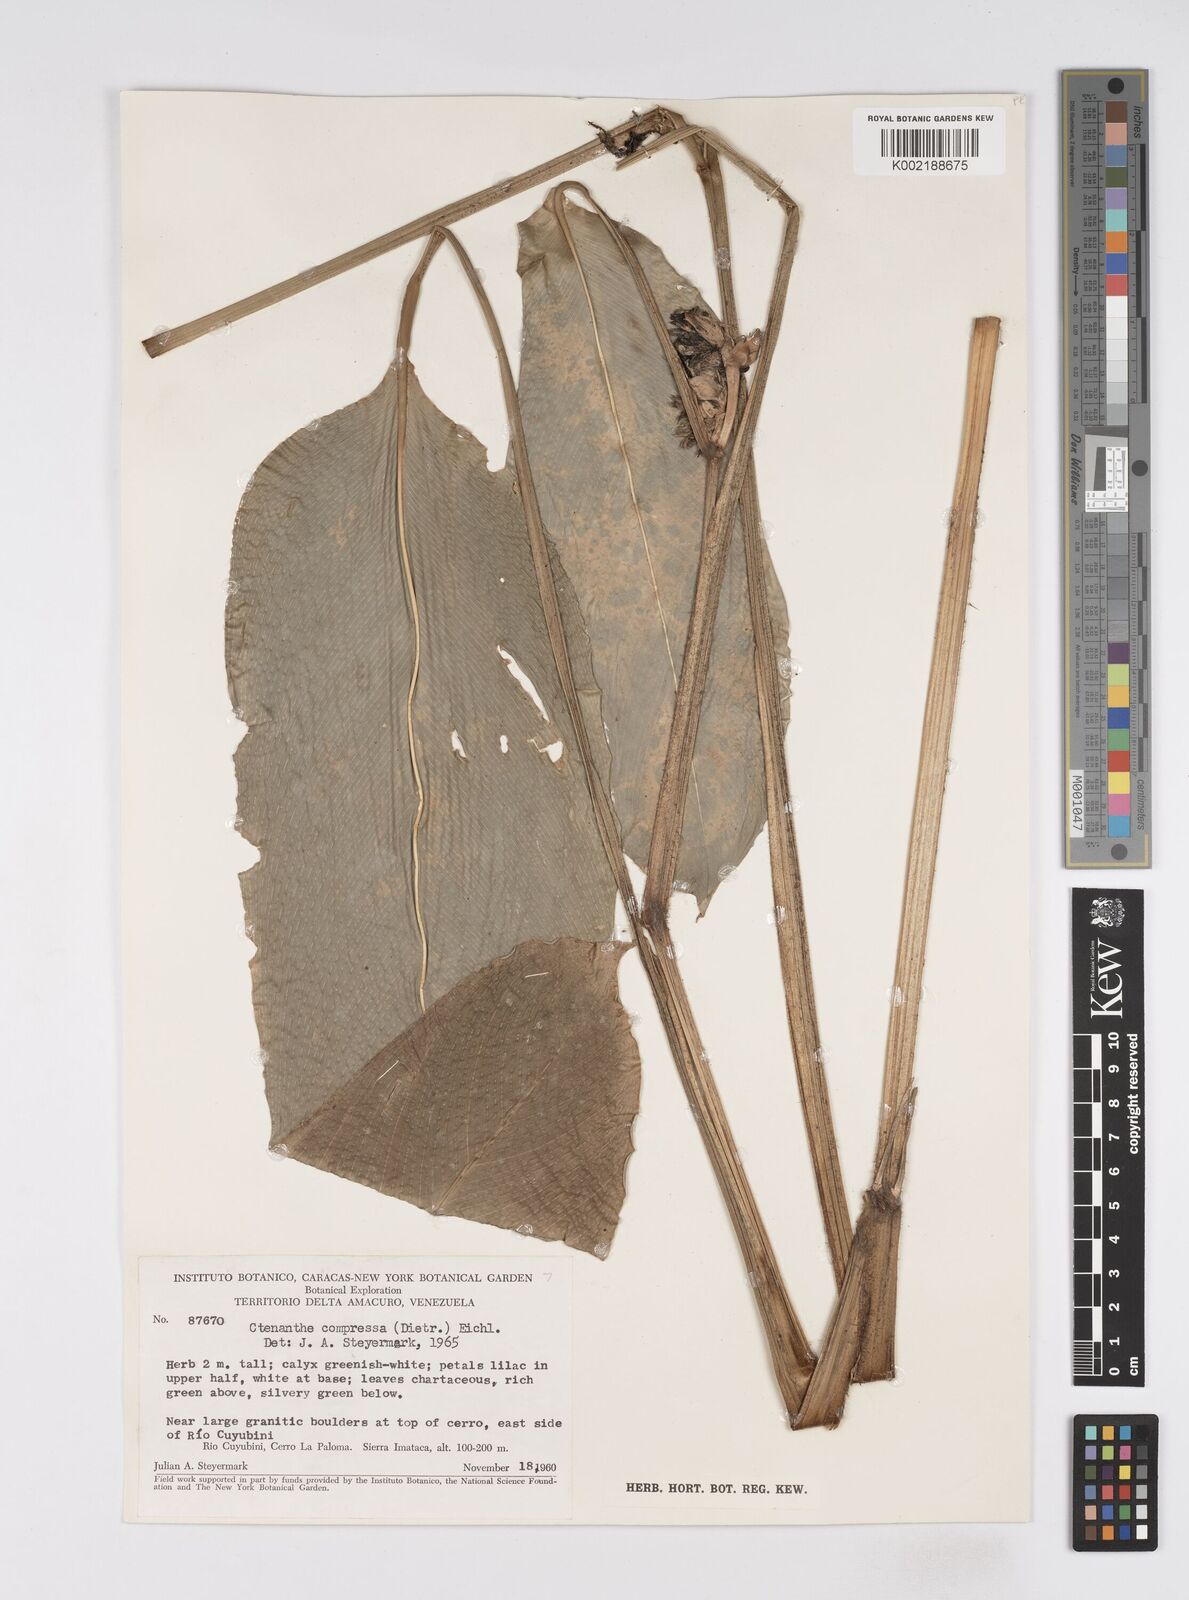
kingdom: Plantae
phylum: Tracheophyta
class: Liliopsida
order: Zingiberales
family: Marantaceae
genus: Ctenanthe
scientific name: Ctenanthe compressa
